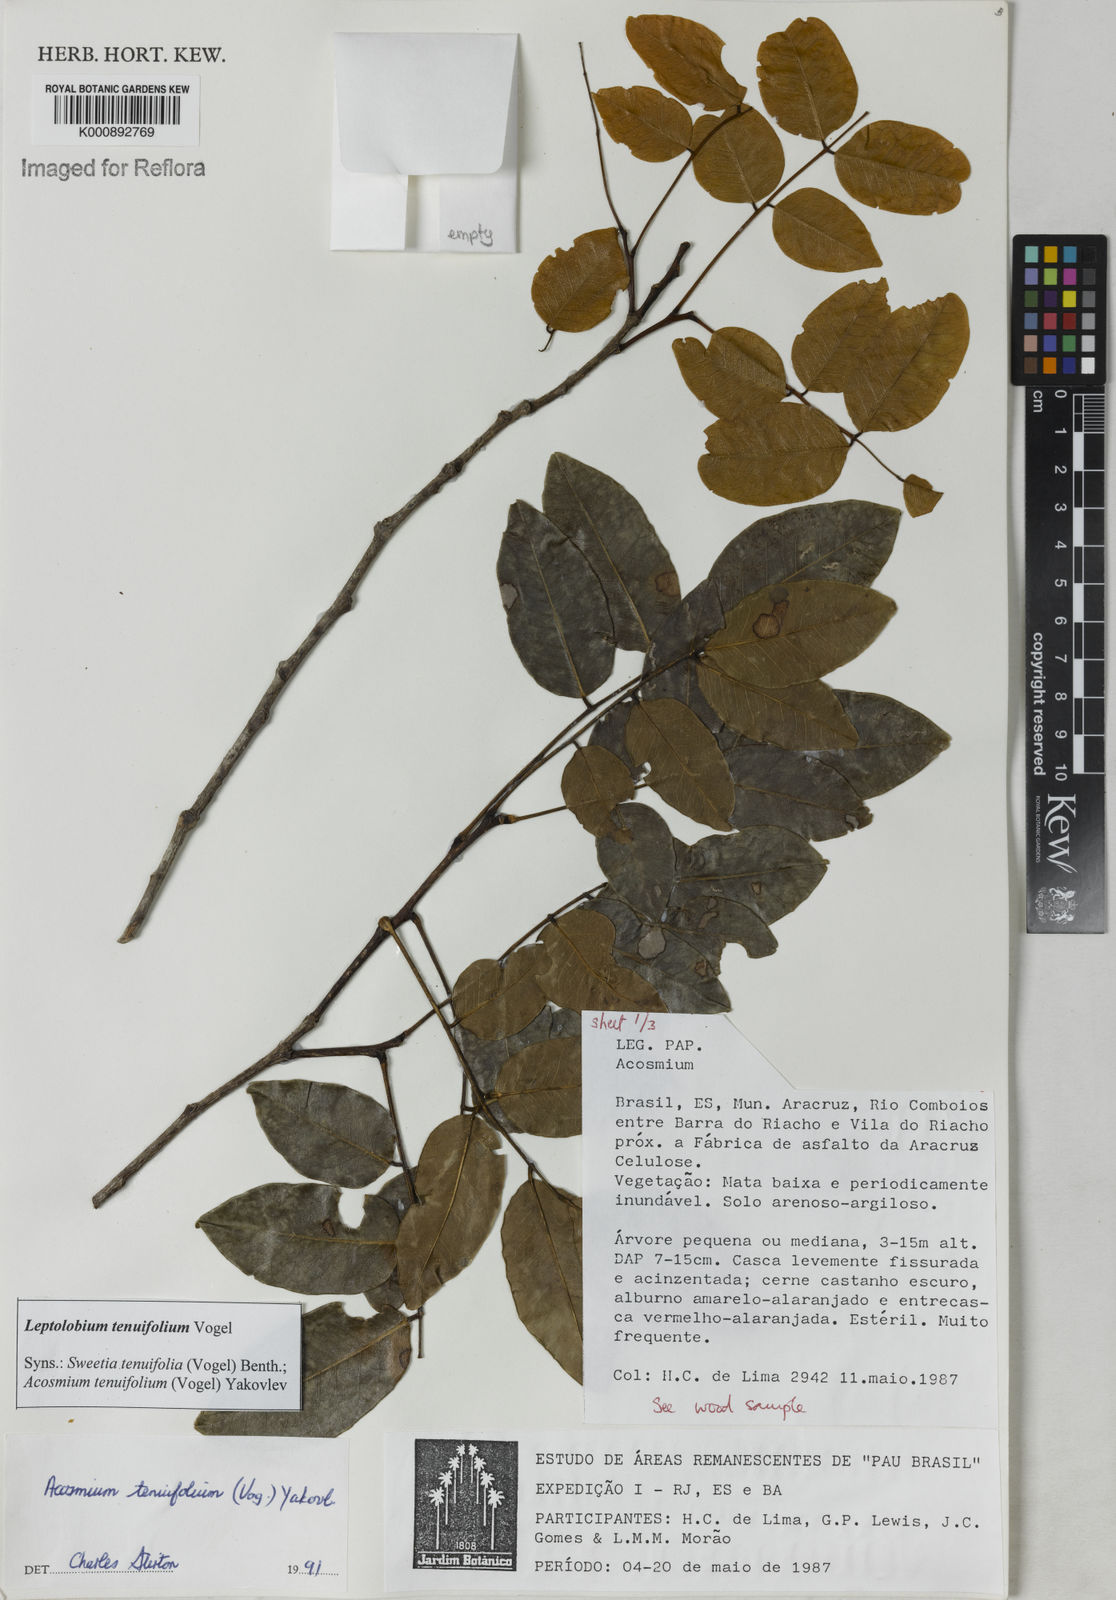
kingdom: Plantae
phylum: Tracheophyta
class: Magnoliopsida
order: Fabales
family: Fabaceae
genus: Leptolobium
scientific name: Leptolobium tenuifolium
